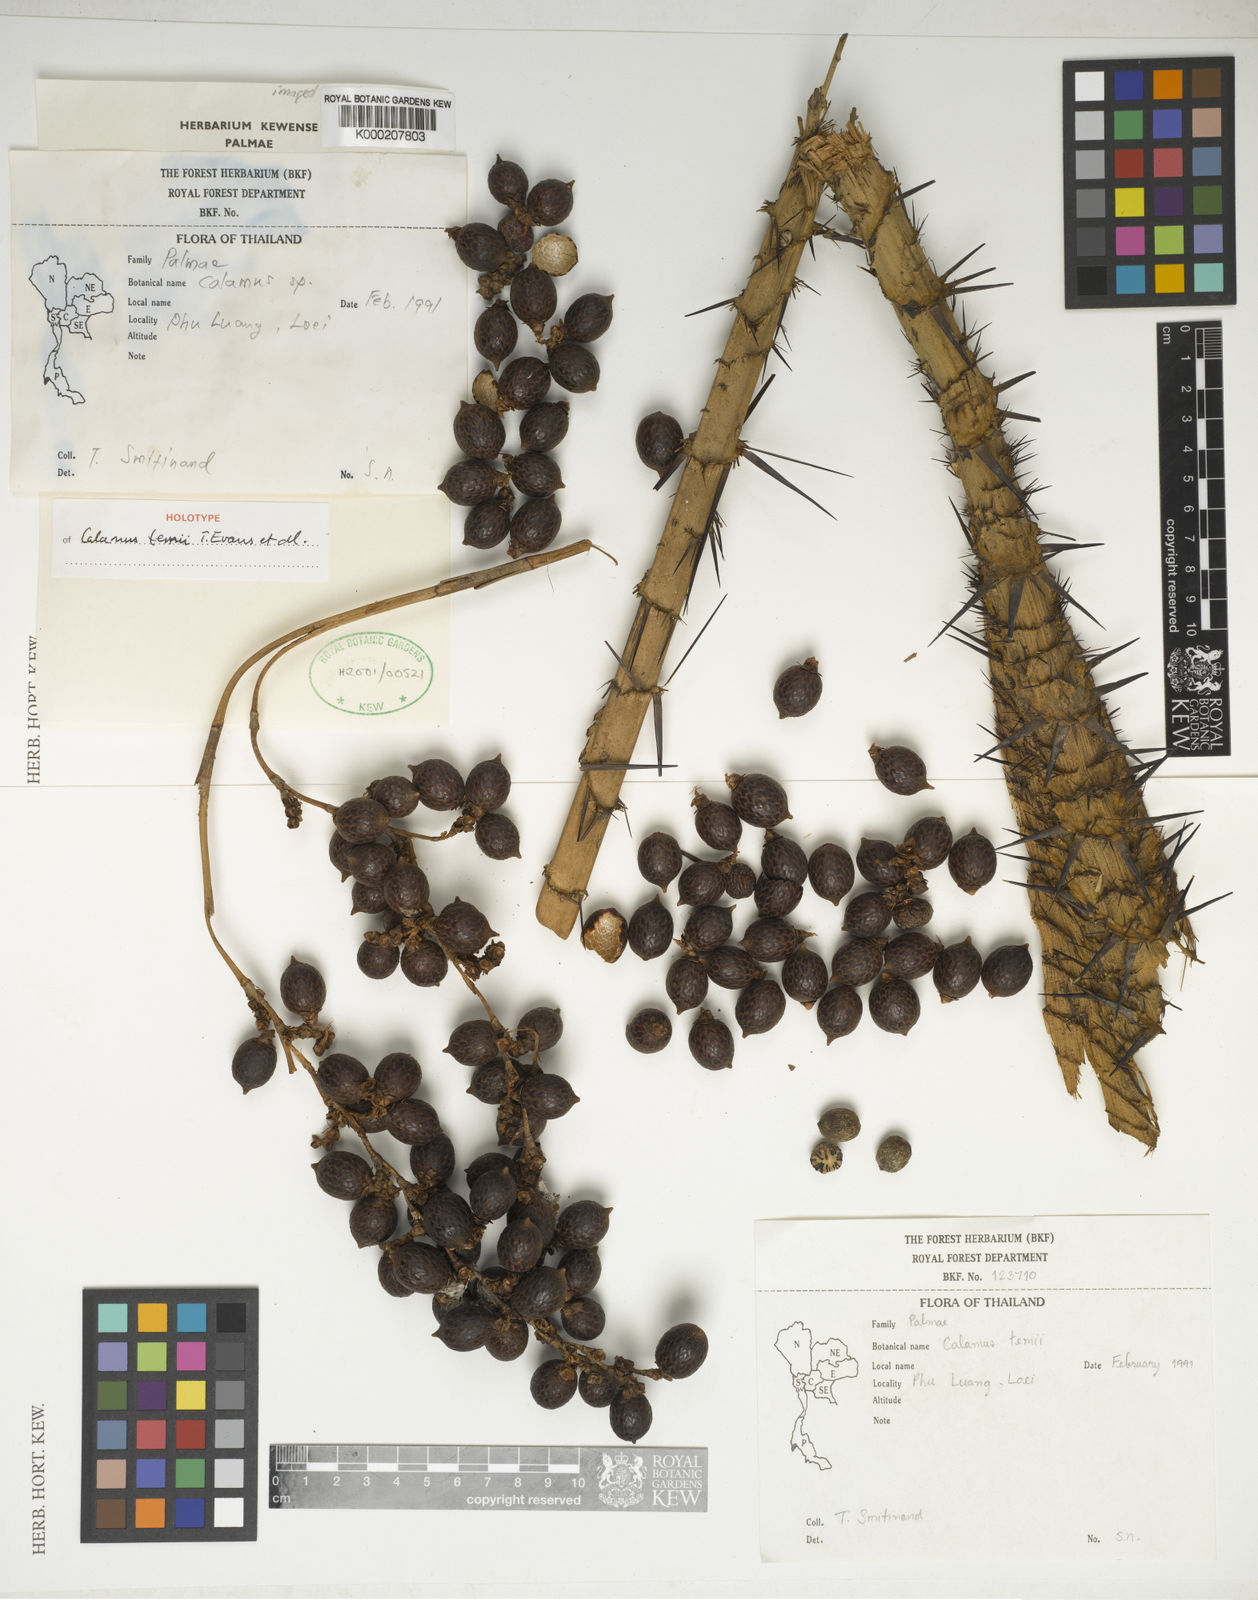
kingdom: Plantae
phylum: Tracheophyta
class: Liliopsida
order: Arecales
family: Arecaceae
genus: Calamus
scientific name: Calamus temii
